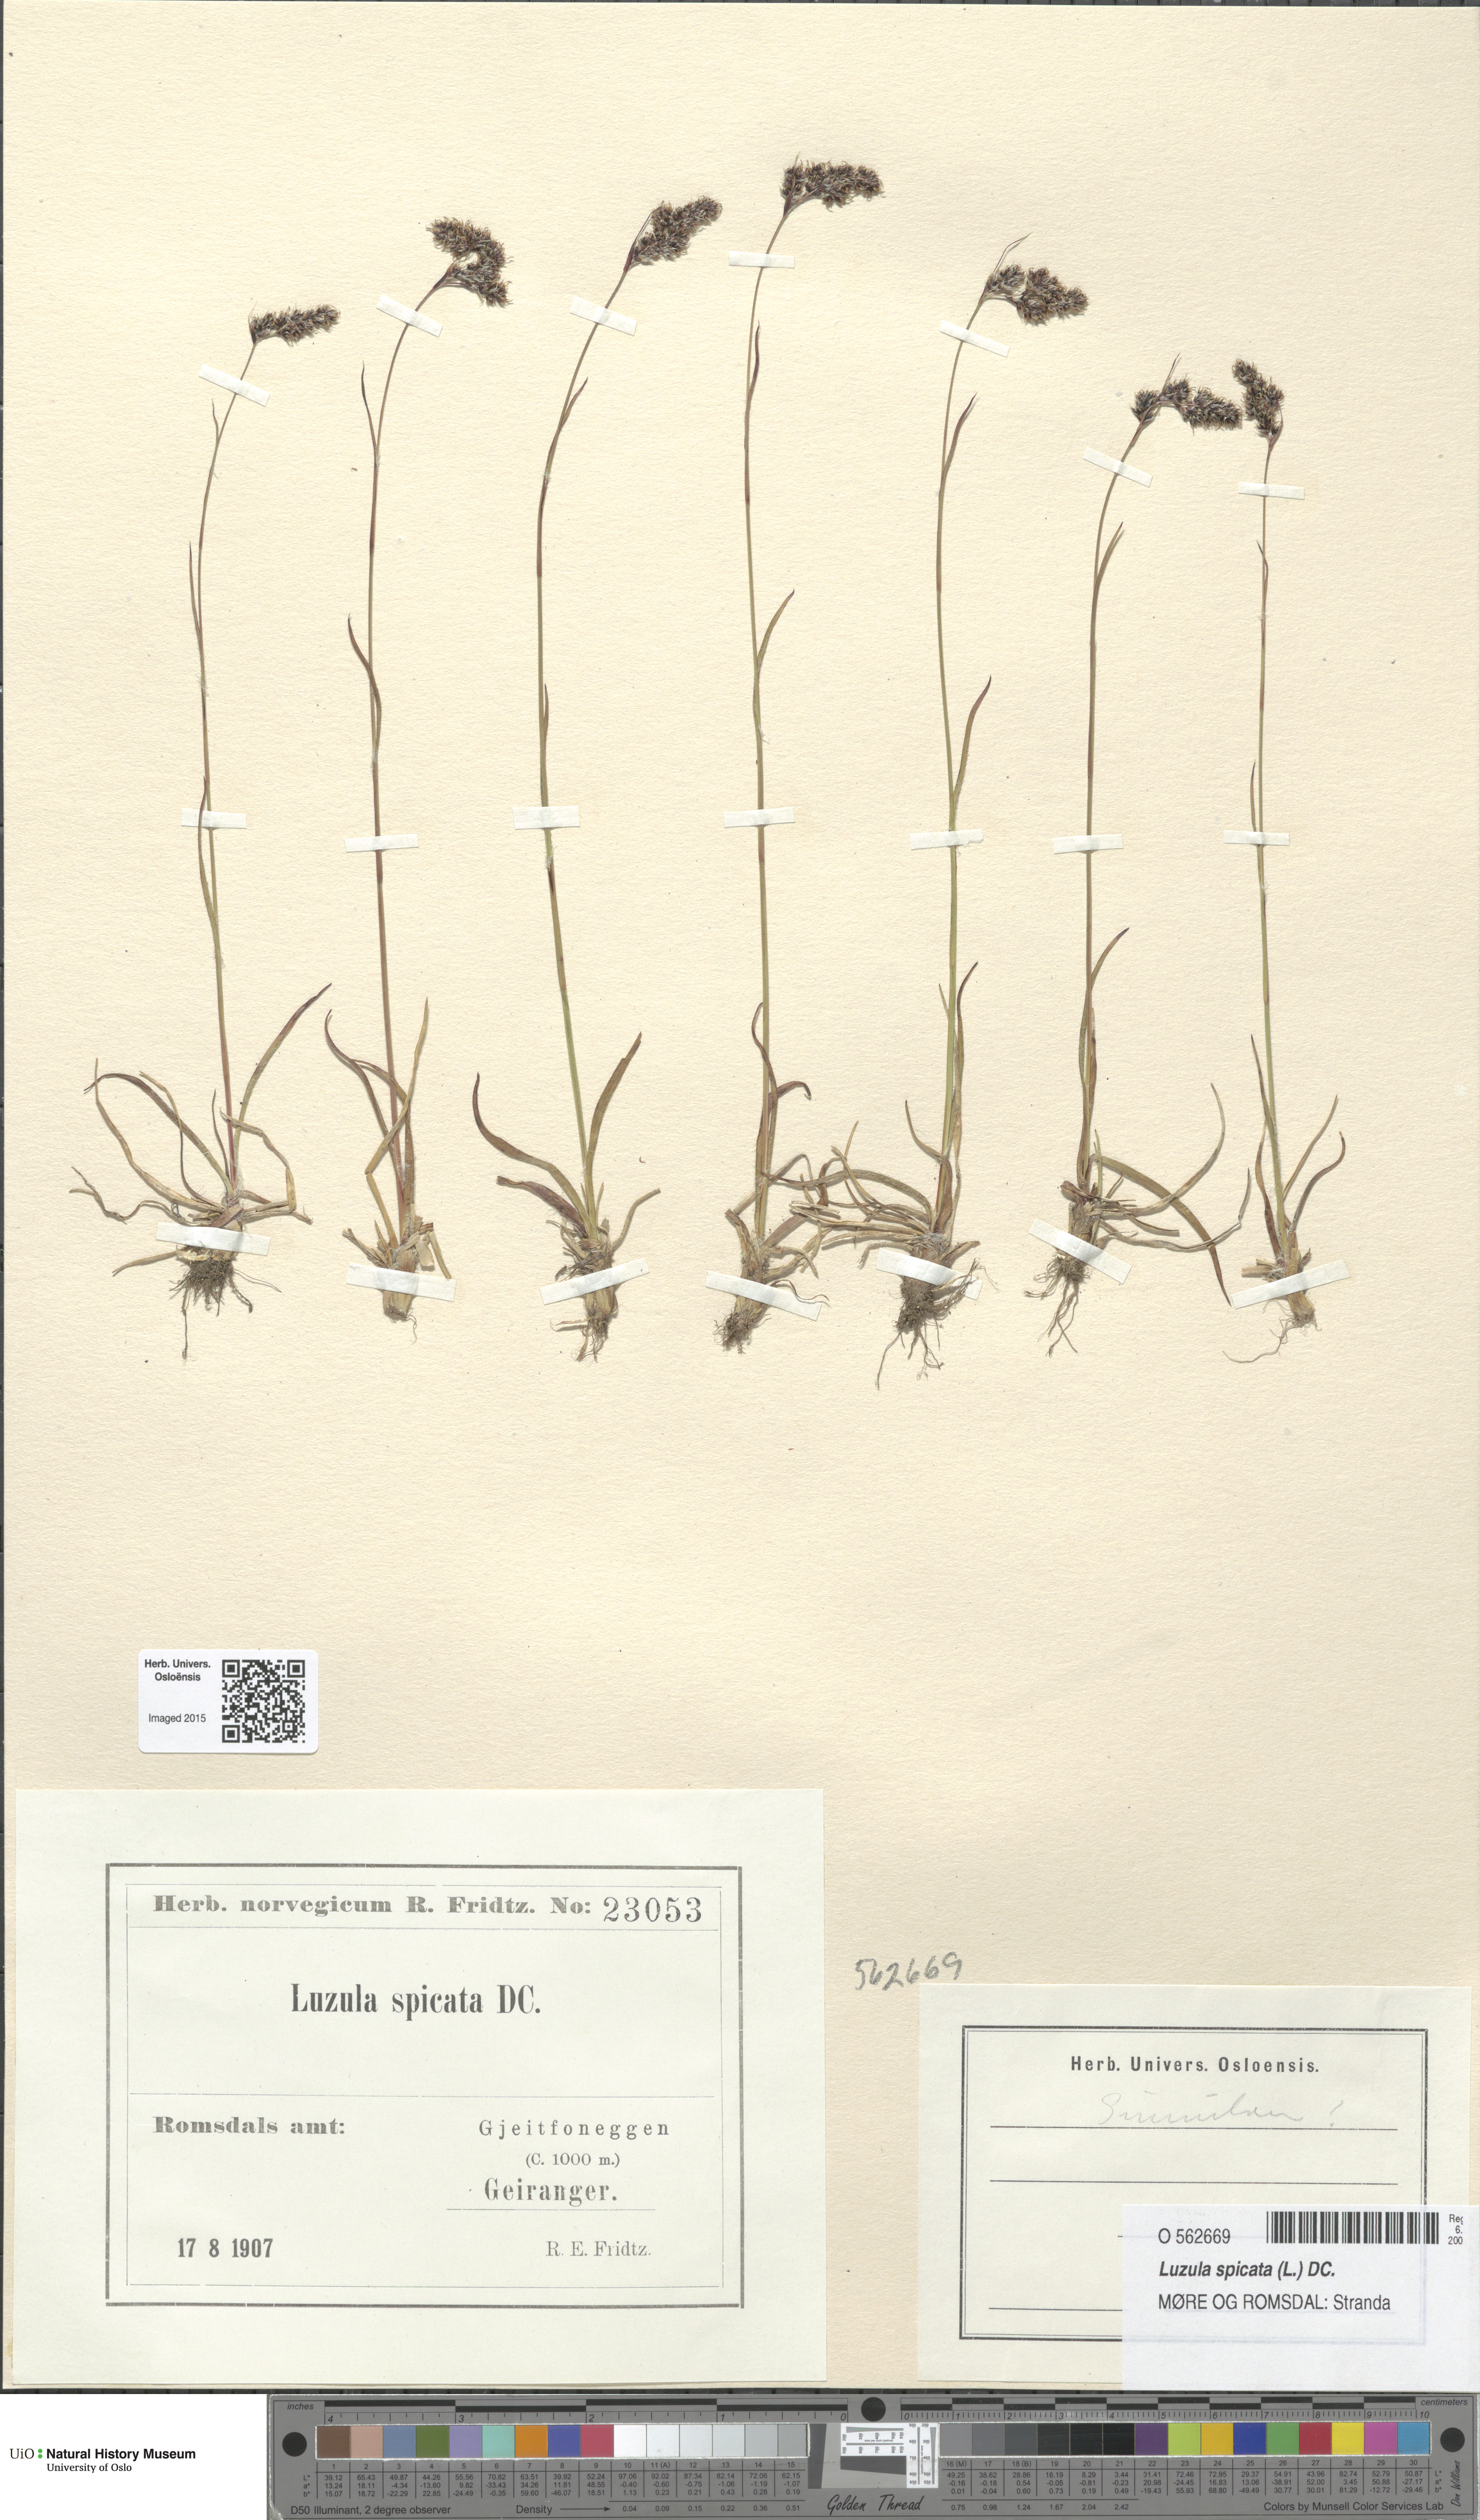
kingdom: Plantae
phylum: Tracheophyta
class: Liliopsida
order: Poales
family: Juncaceae
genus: Luzula
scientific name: Luzula spicata
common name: Spiked wood-rush
